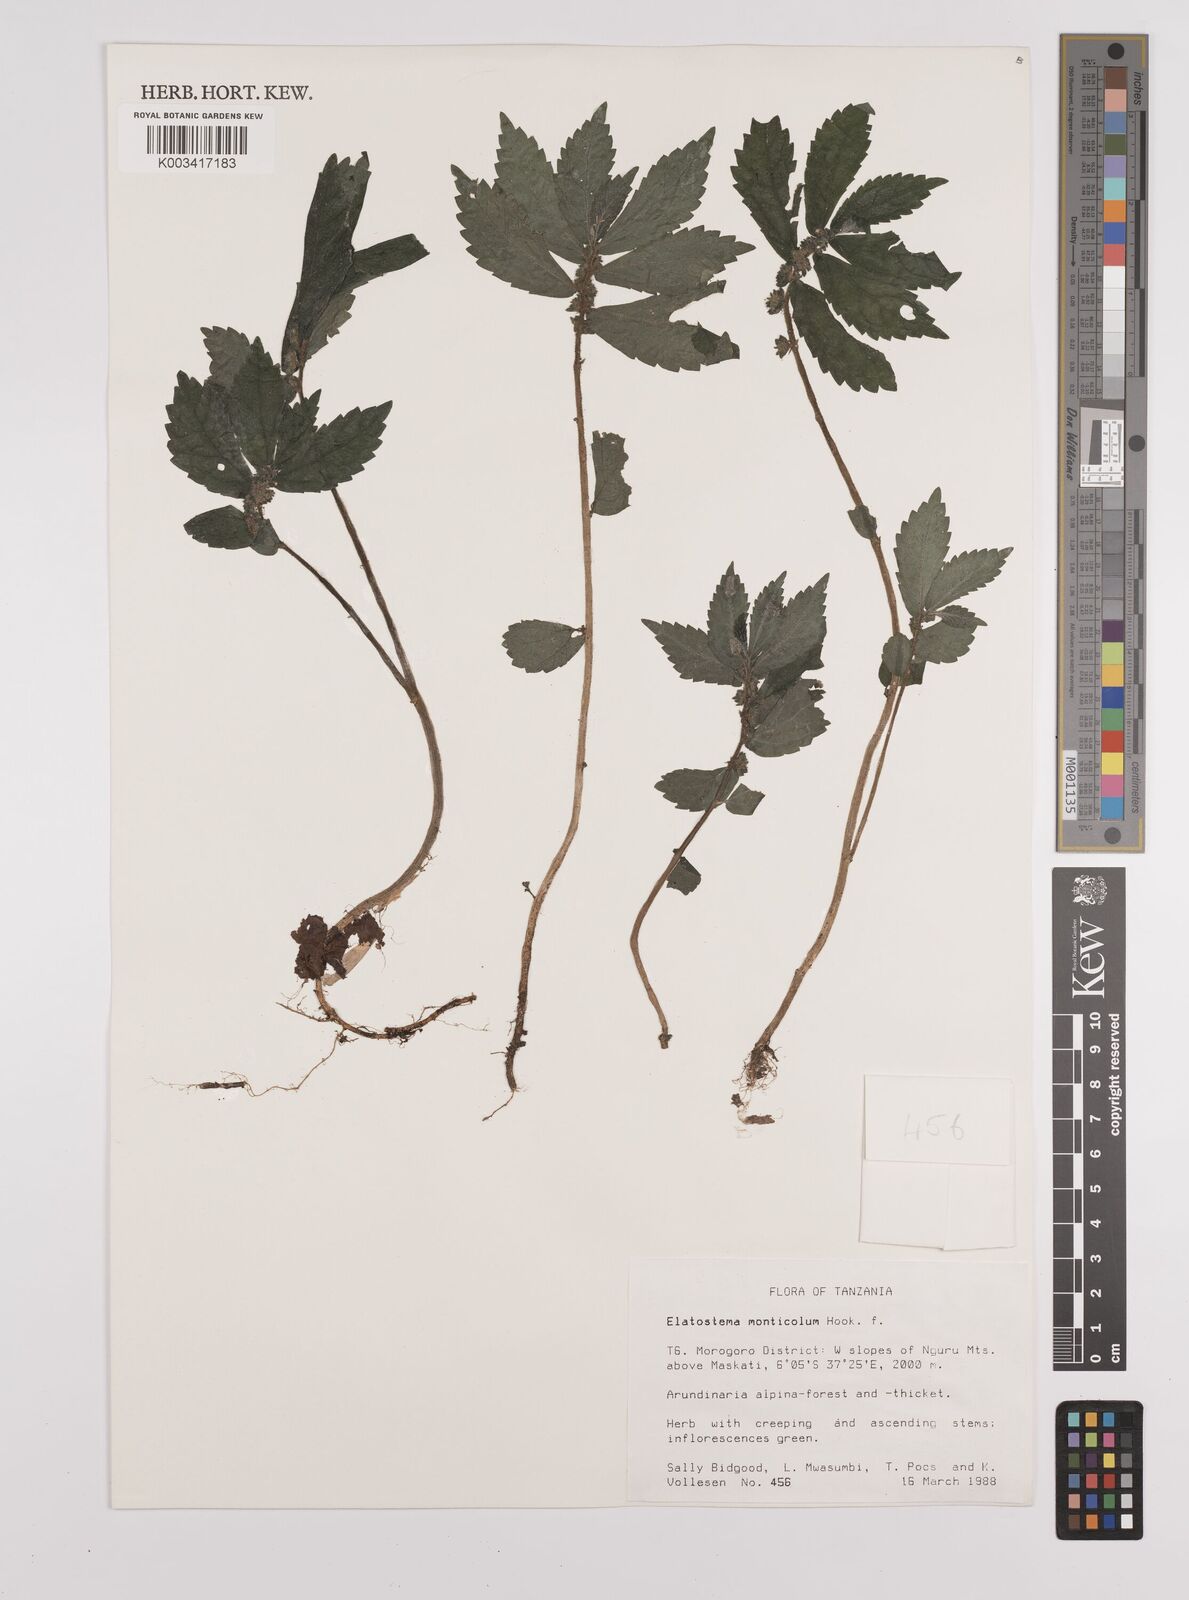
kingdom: Plantae
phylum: Tracheophyta
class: Magnoliopsida
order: Rosales
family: Urticaceae
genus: Elatostema
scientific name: Elatostema monticola
